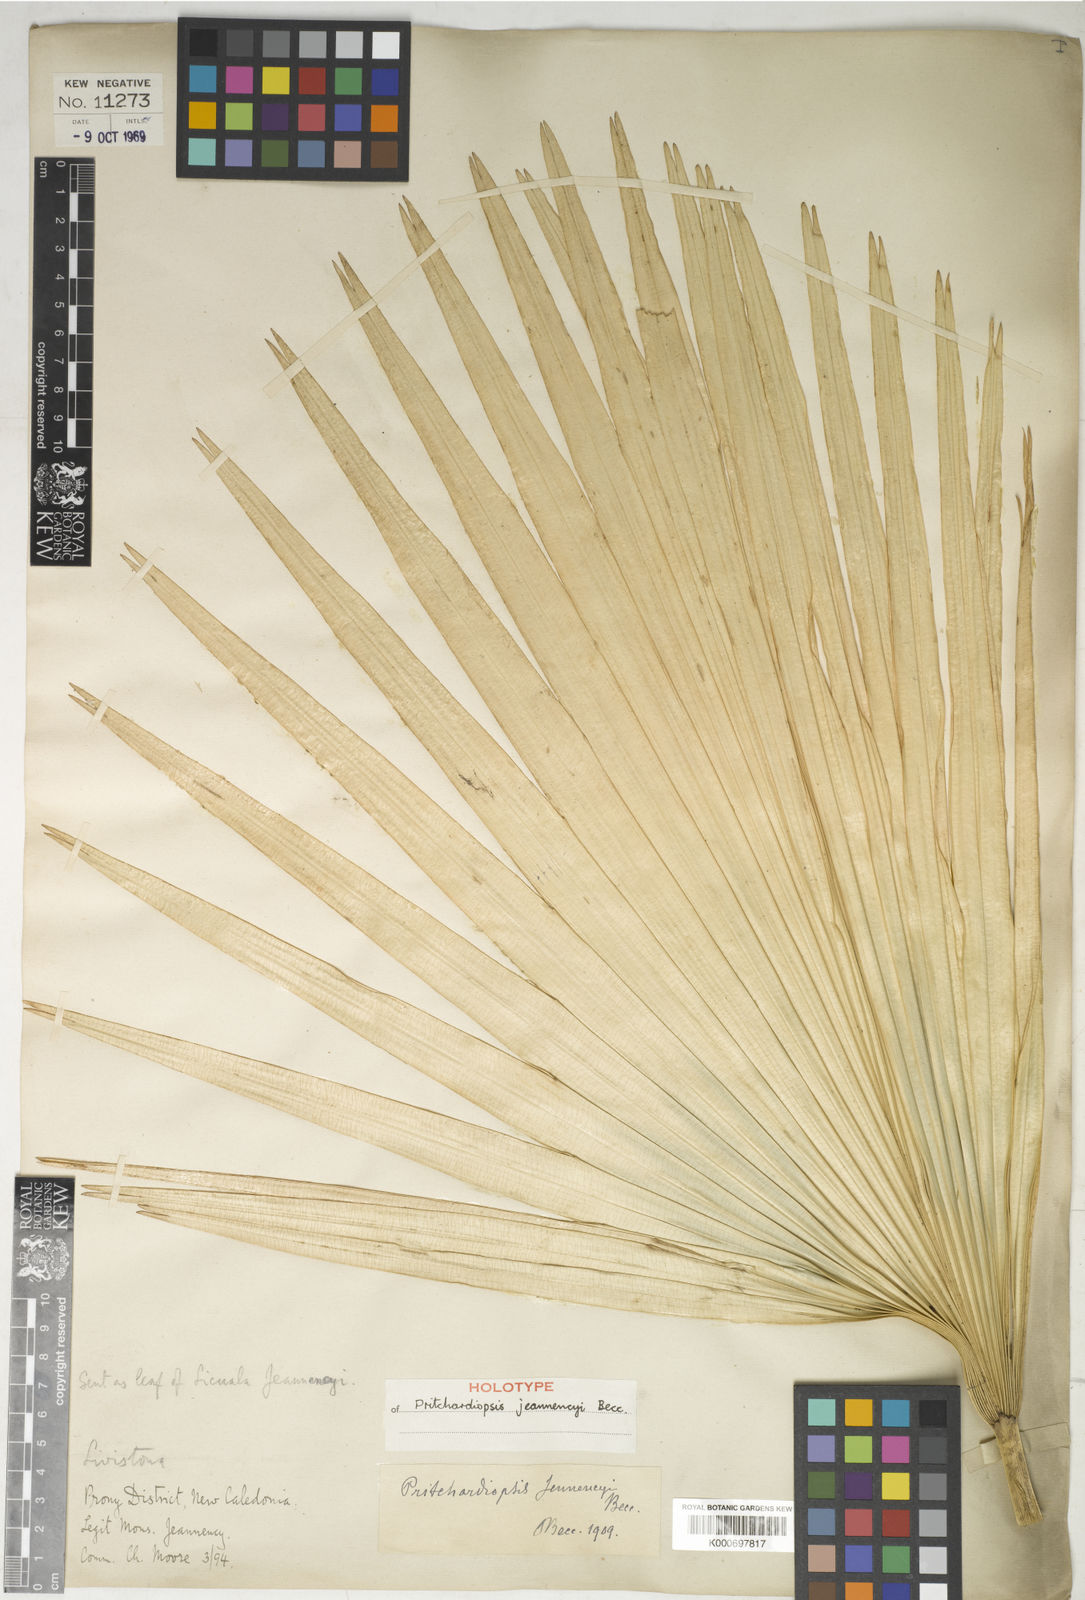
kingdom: Plantae
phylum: Tracheophyta
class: Liliopsida
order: Arecales
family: Arecaceae
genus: Saribus
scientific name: Saribus jeanneneyi
